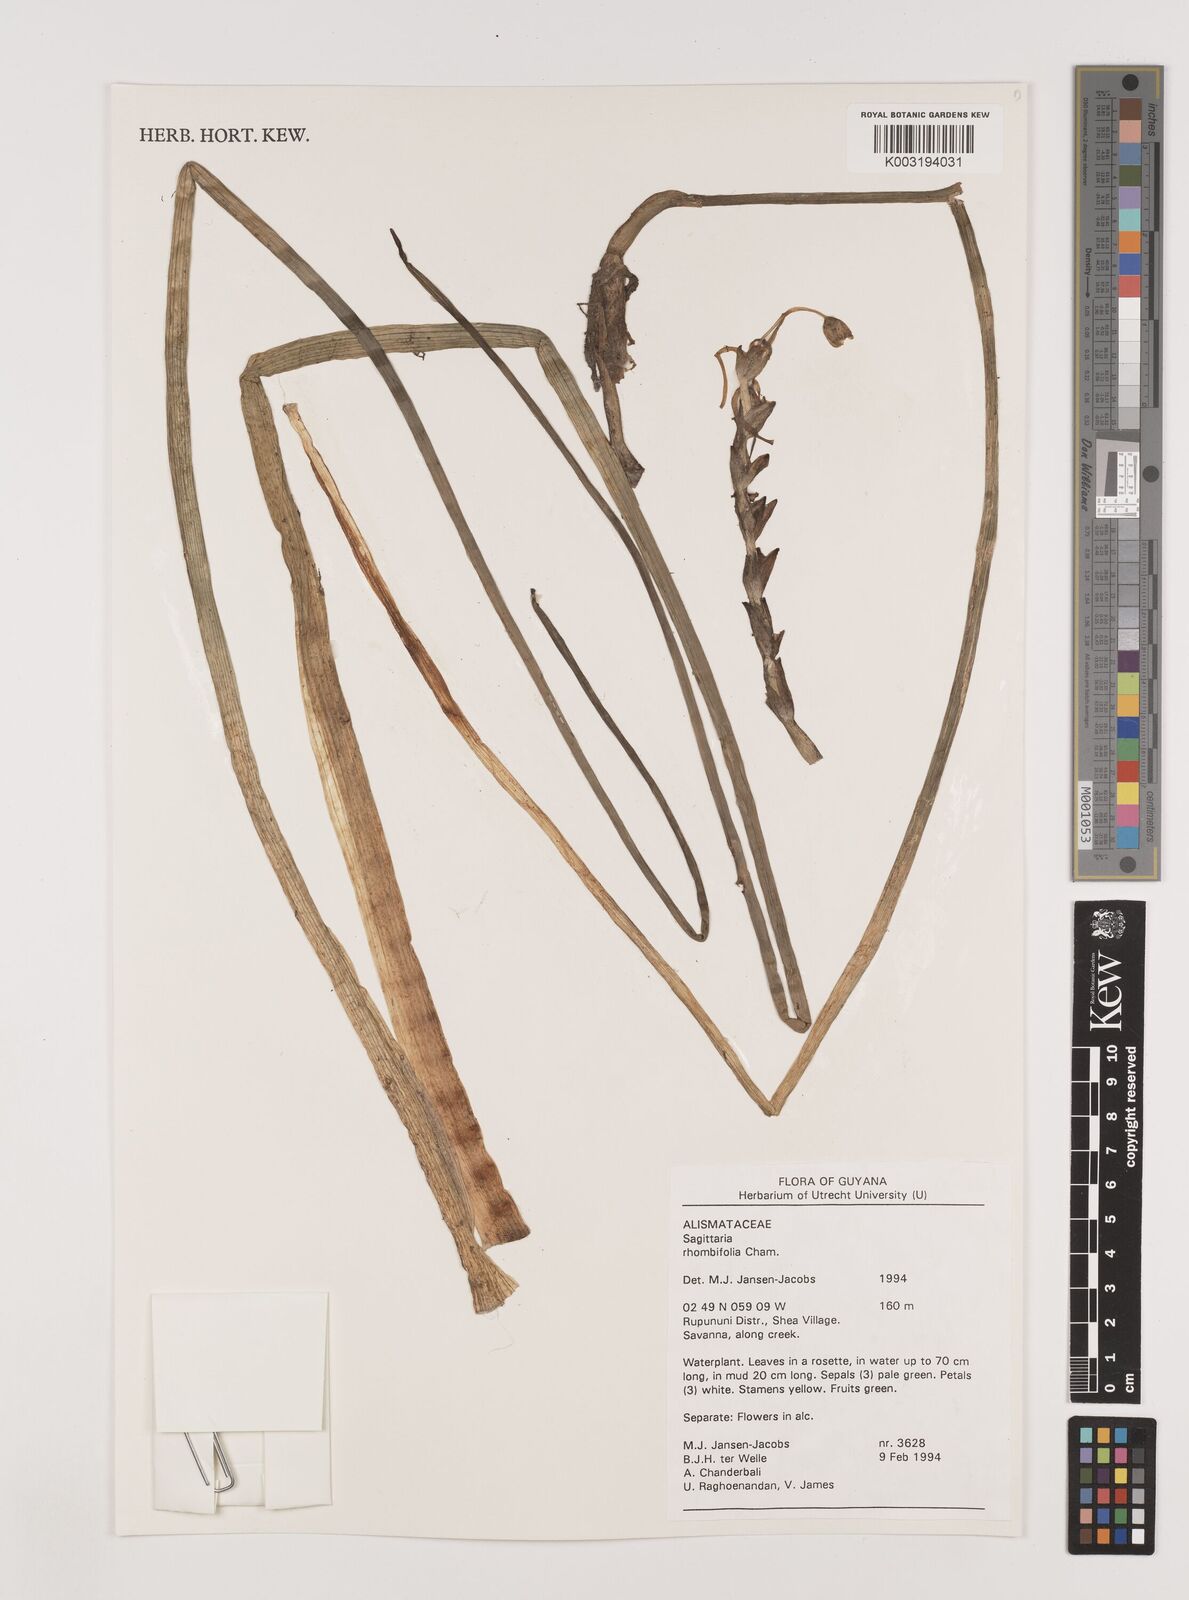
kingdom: Plantae
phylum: Tracheophyta
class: Liliopsida
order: Alismatales
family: Alismataceae
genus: Sagittaria
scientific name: Sagittaria rhombifolia
